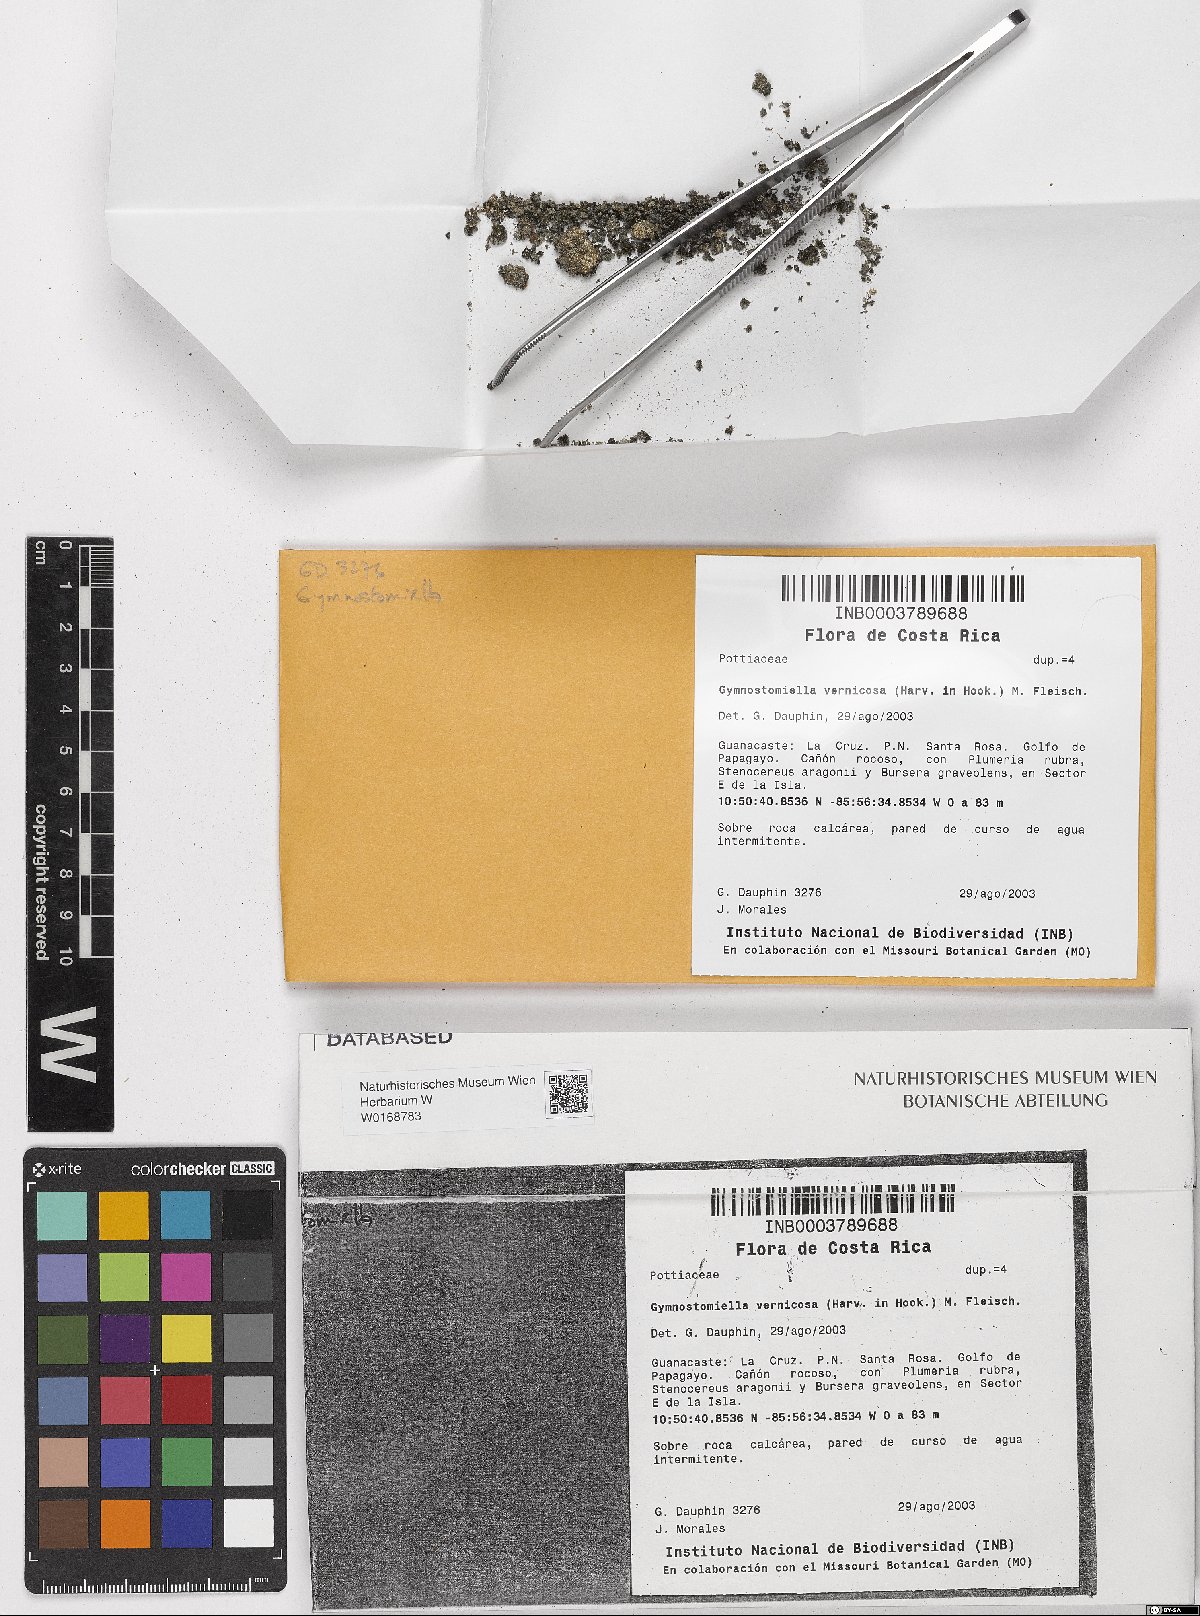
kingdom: Plantae
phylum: Bryophyta
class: Bryopsida
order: Pottiales
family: Pottiaceae
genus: Gymnostomiella
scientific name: Gymnostomiella vernicosa
